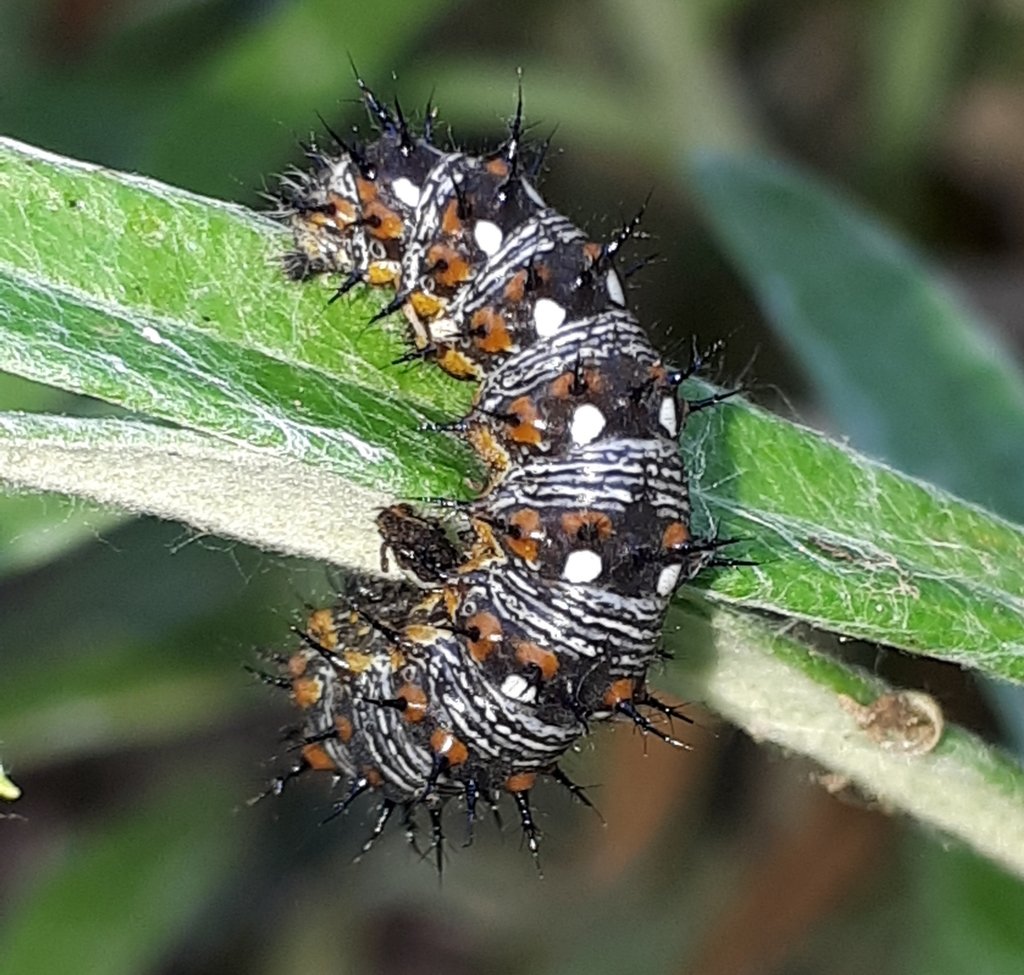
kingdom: Animalia
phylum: Arthropoda
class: Insecta
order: Lepidoptera
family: Nymphalidae
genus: Vanessa
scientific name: Vanessa virginiensis
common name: American Lady
